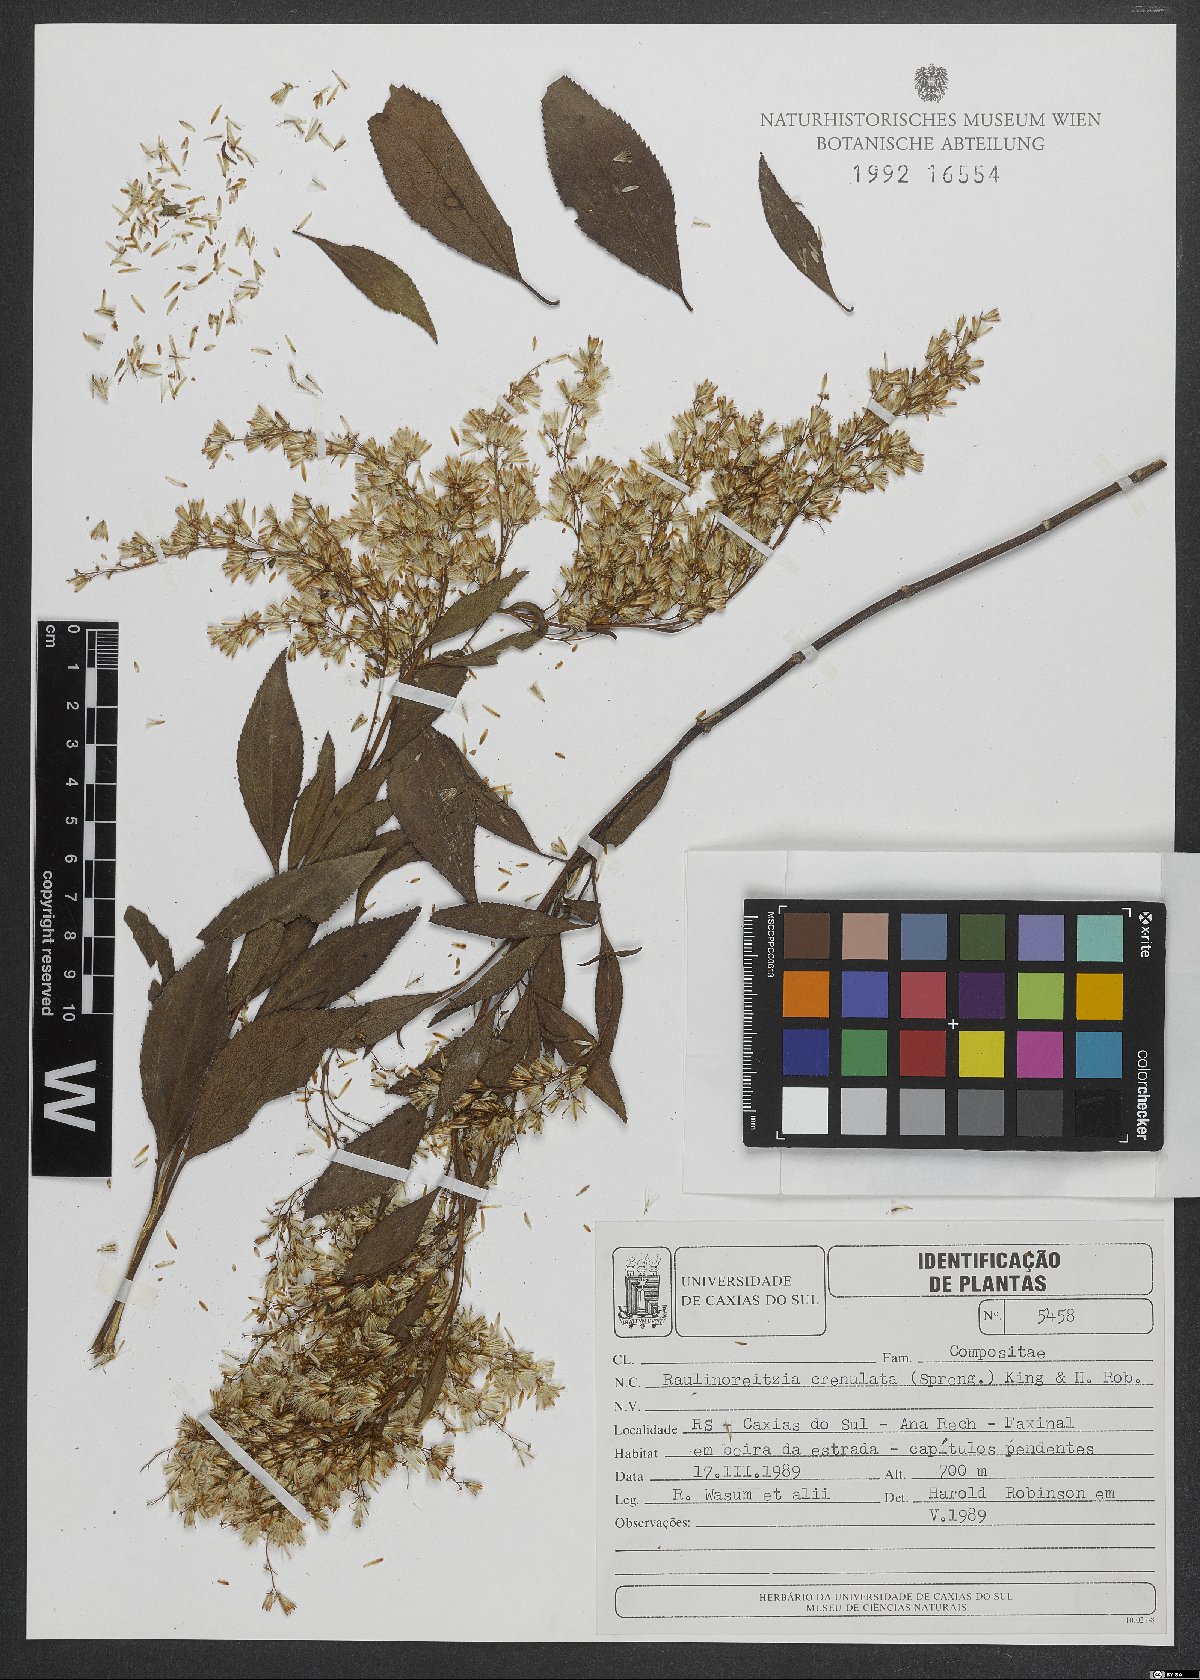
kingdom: Plantae
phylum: Tracheophyta
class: Magnoliopsida
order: Asterales
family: Asteraceae
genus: Raulinoreitzia
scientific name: Raulinoreitzia crenulata
